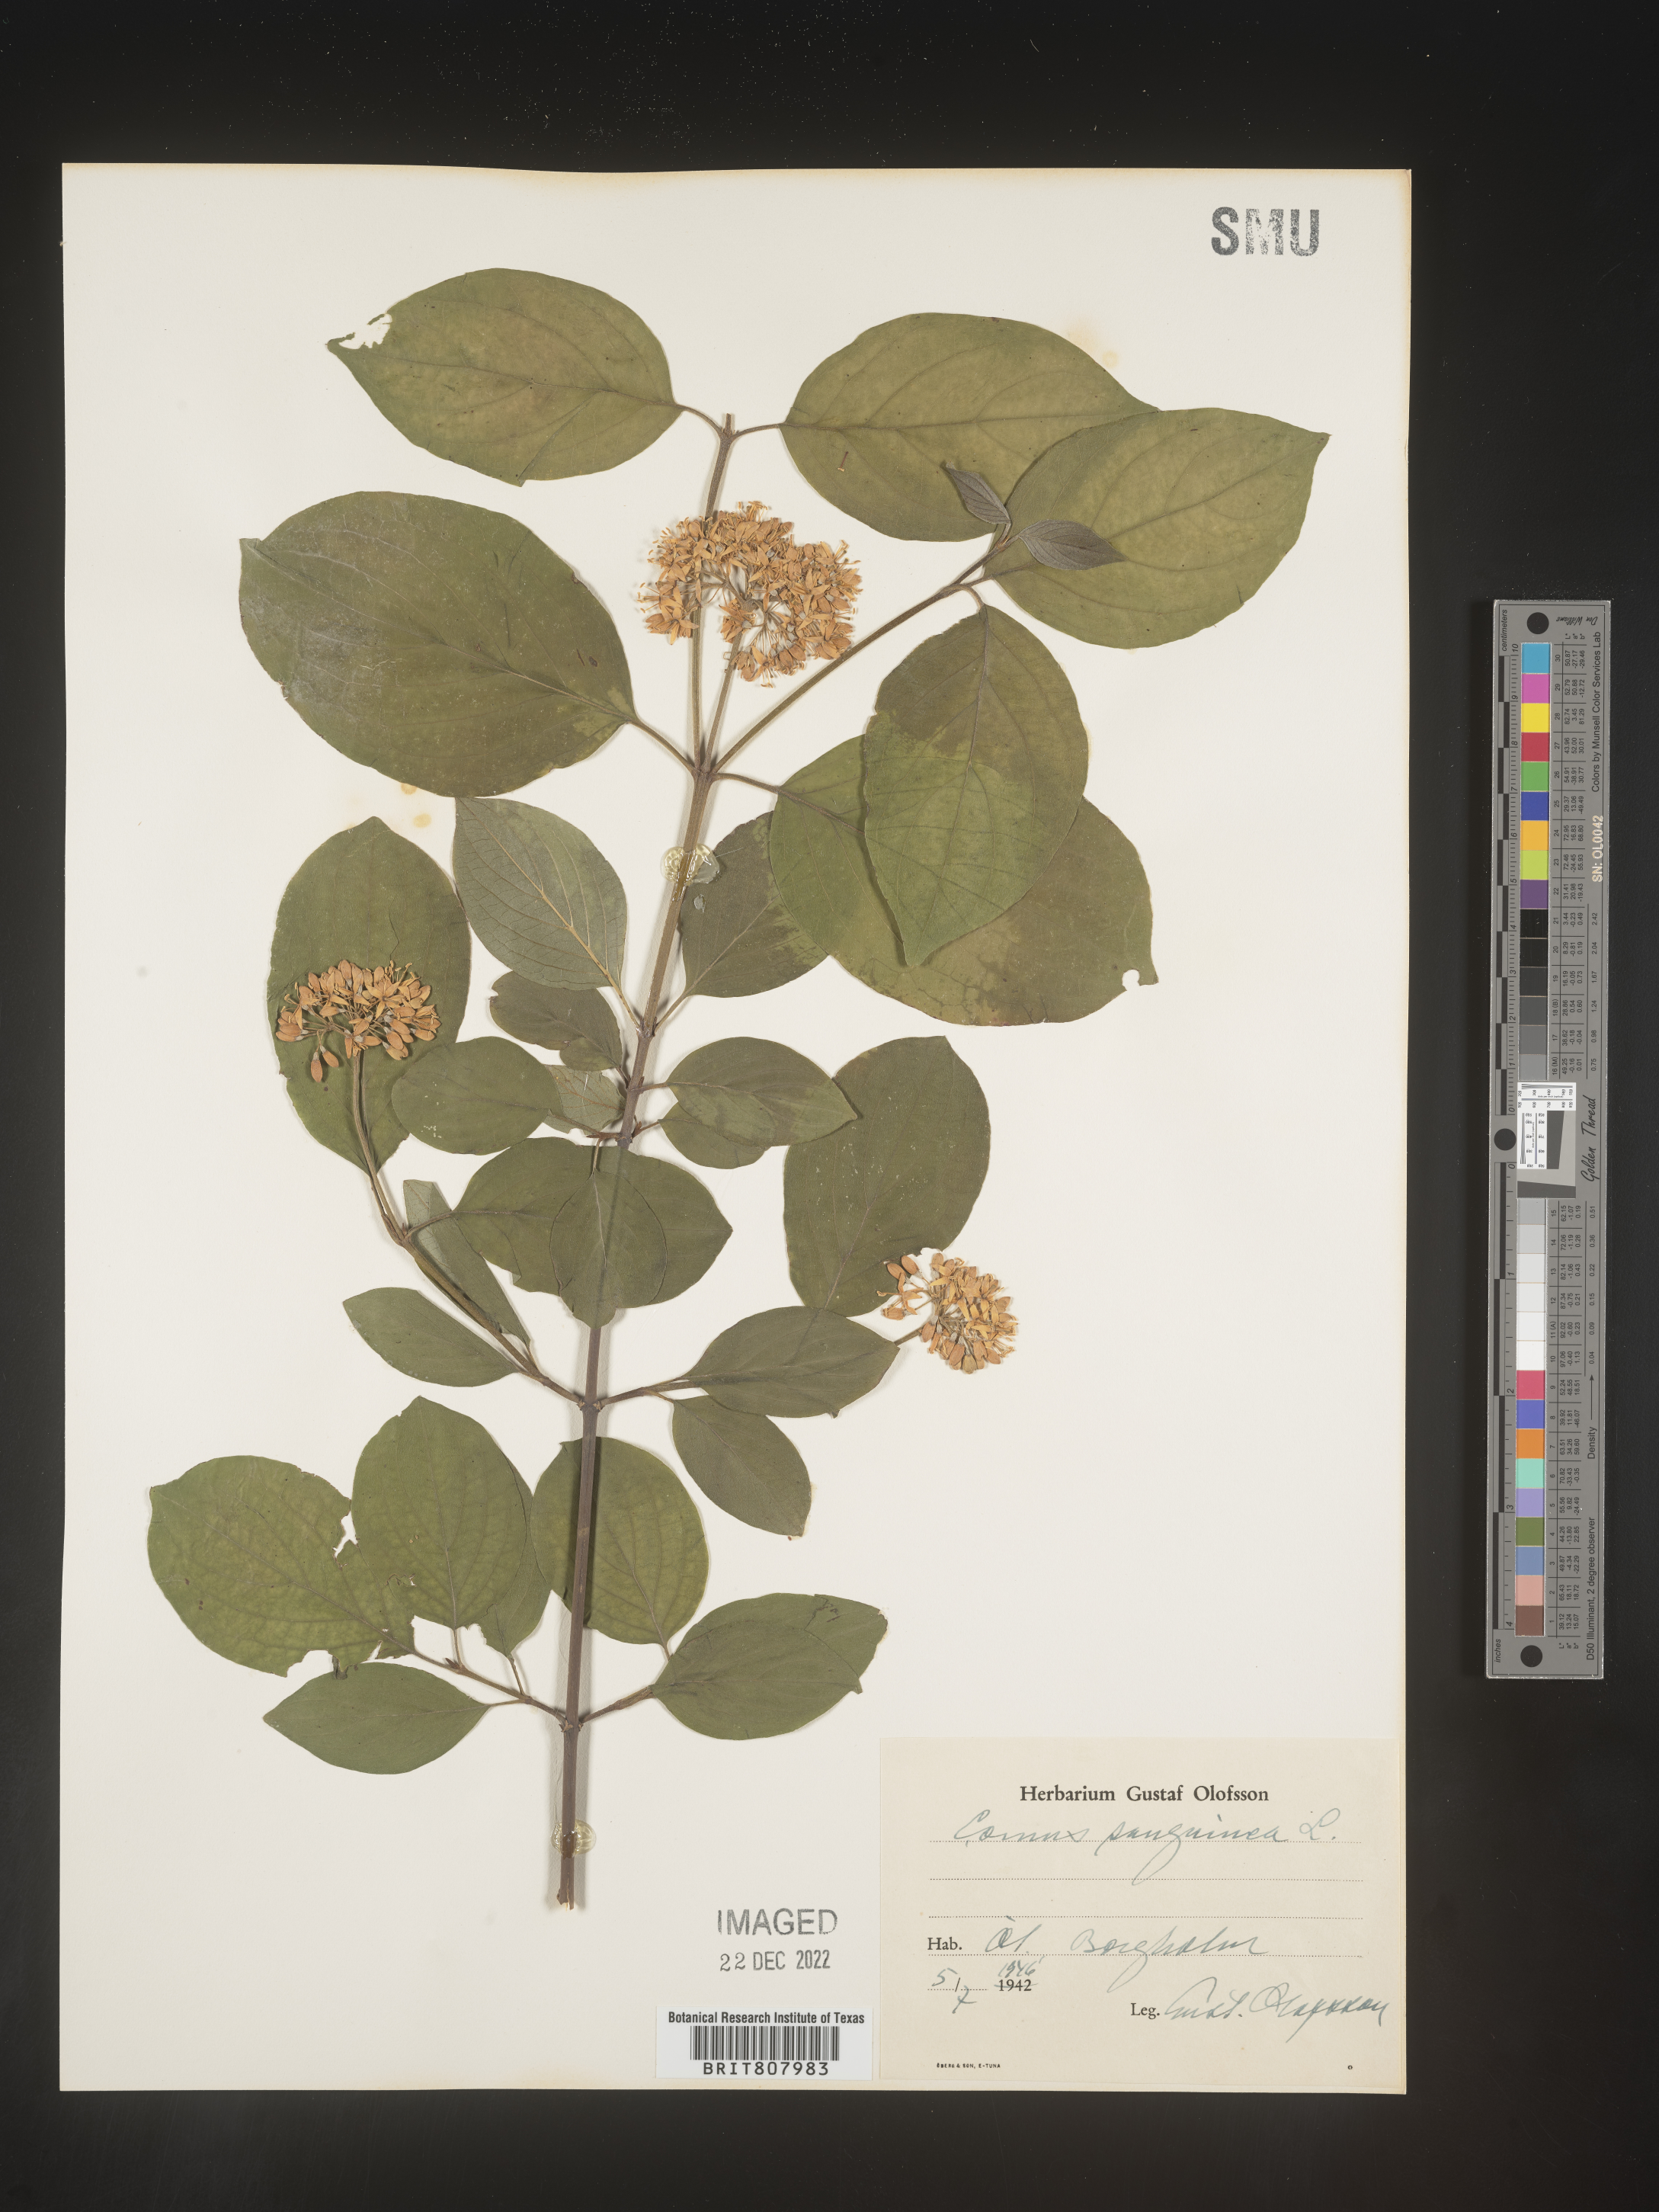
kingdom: Plantae
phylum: Tracheophyta
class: Magnoliopsida
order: Cornales
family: Cornaceae
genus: Cornus
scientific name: Cornus
